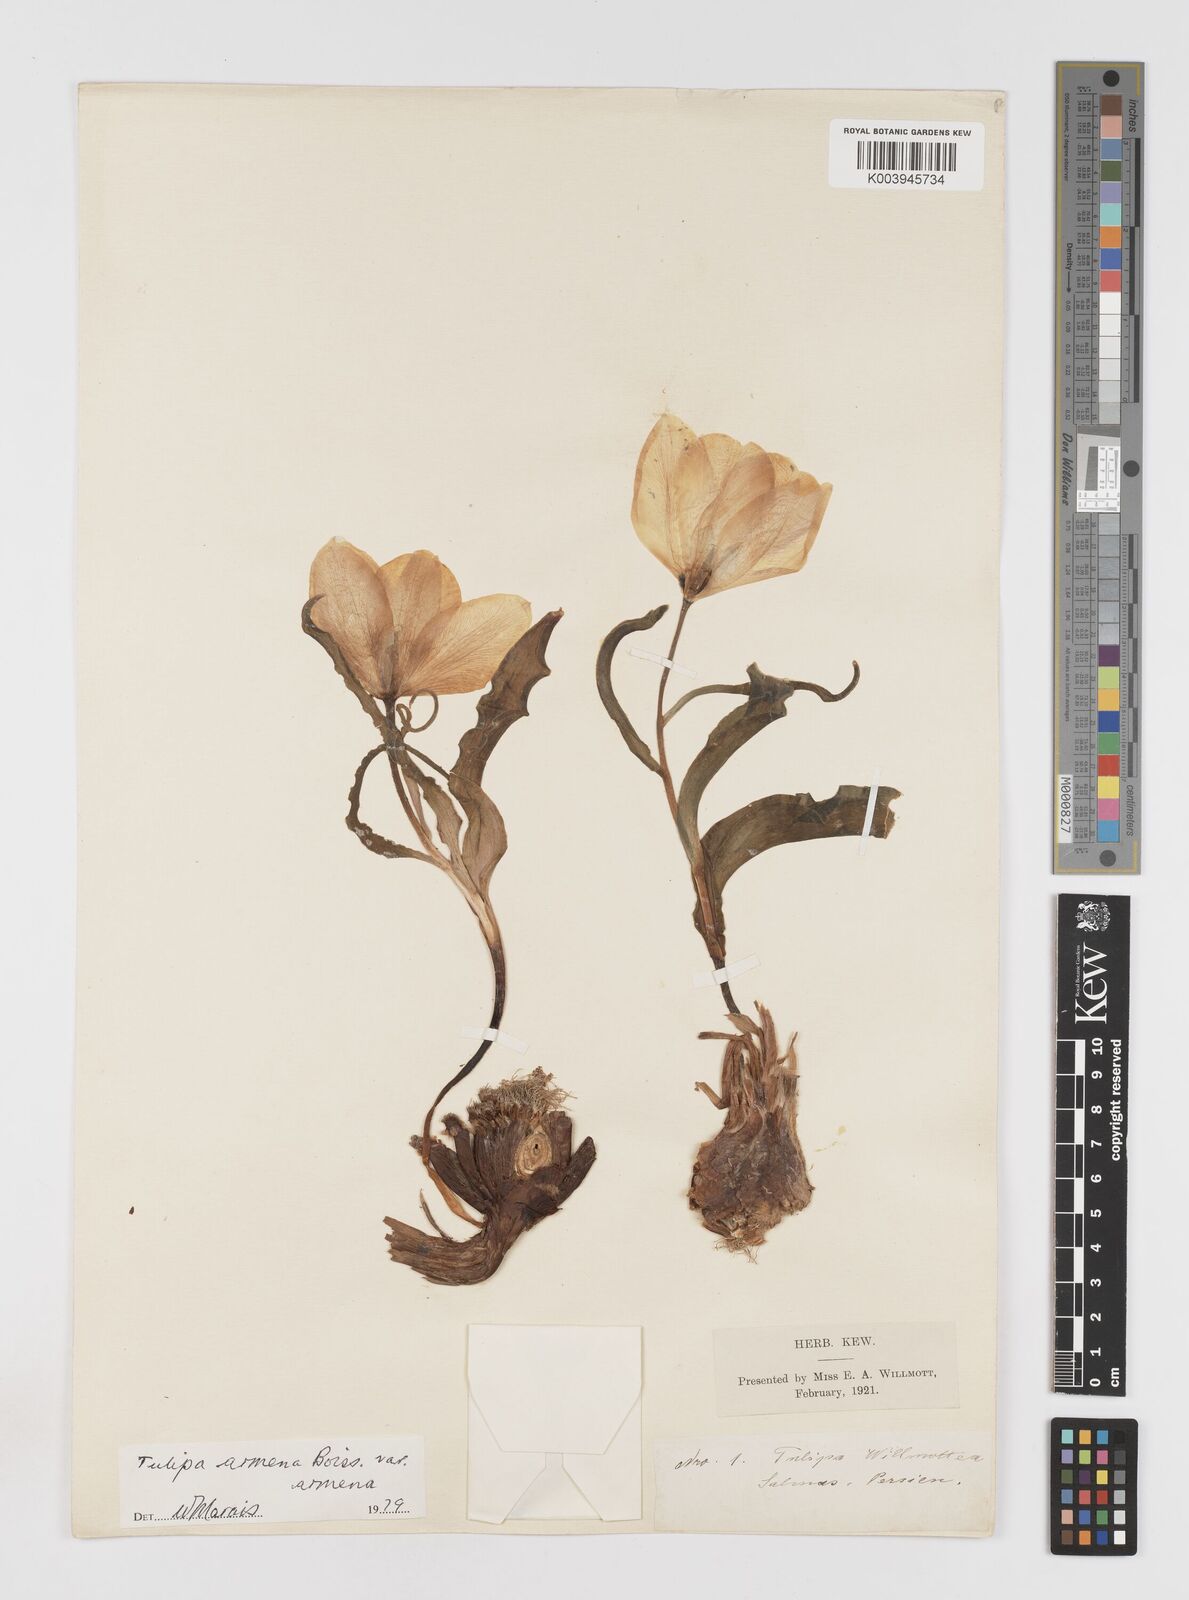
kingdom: Plantae
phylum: Tracheophyta
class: Liliopsida
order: Liliales
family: Liliaceae
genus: Tulipa
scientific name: Tulipa armena
